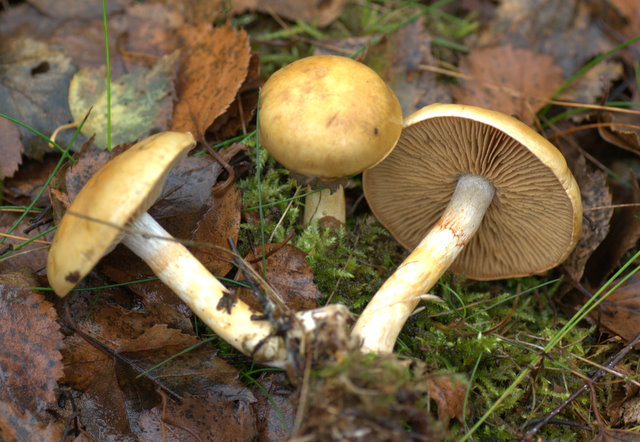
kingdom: Fungi
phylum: Basidiomycota
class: Agaricomycetes
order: Agaricales
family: Cortinariaceae
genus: Cortinarius
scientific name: Cortinarius delibutus
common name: gul slørhat
